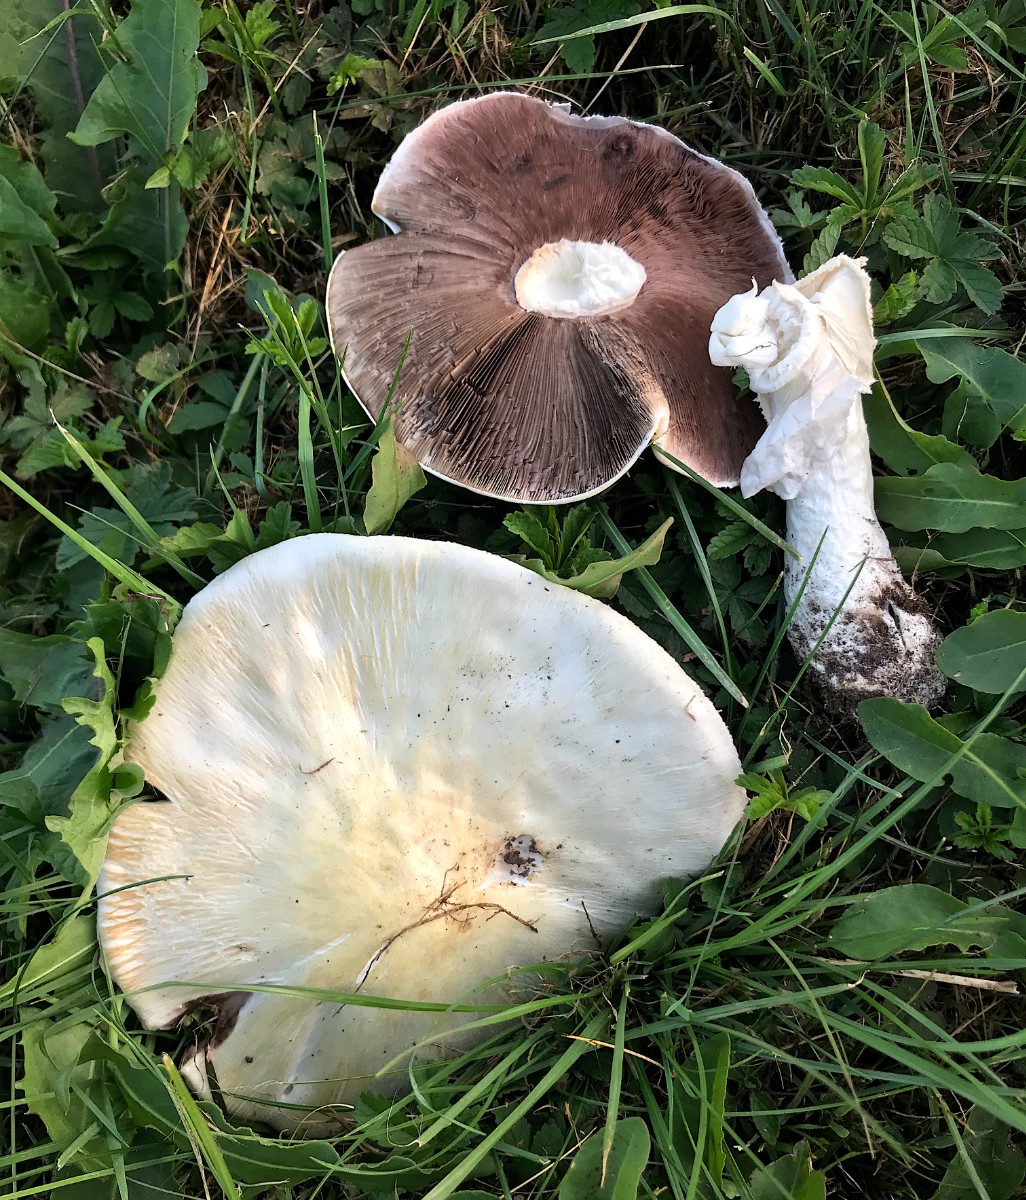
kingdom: Fungi
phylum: Basidiomycota
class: Agaricomycetes
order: Agaricales
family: Agaricaceae
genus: Agaricus
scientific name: Agaricus
